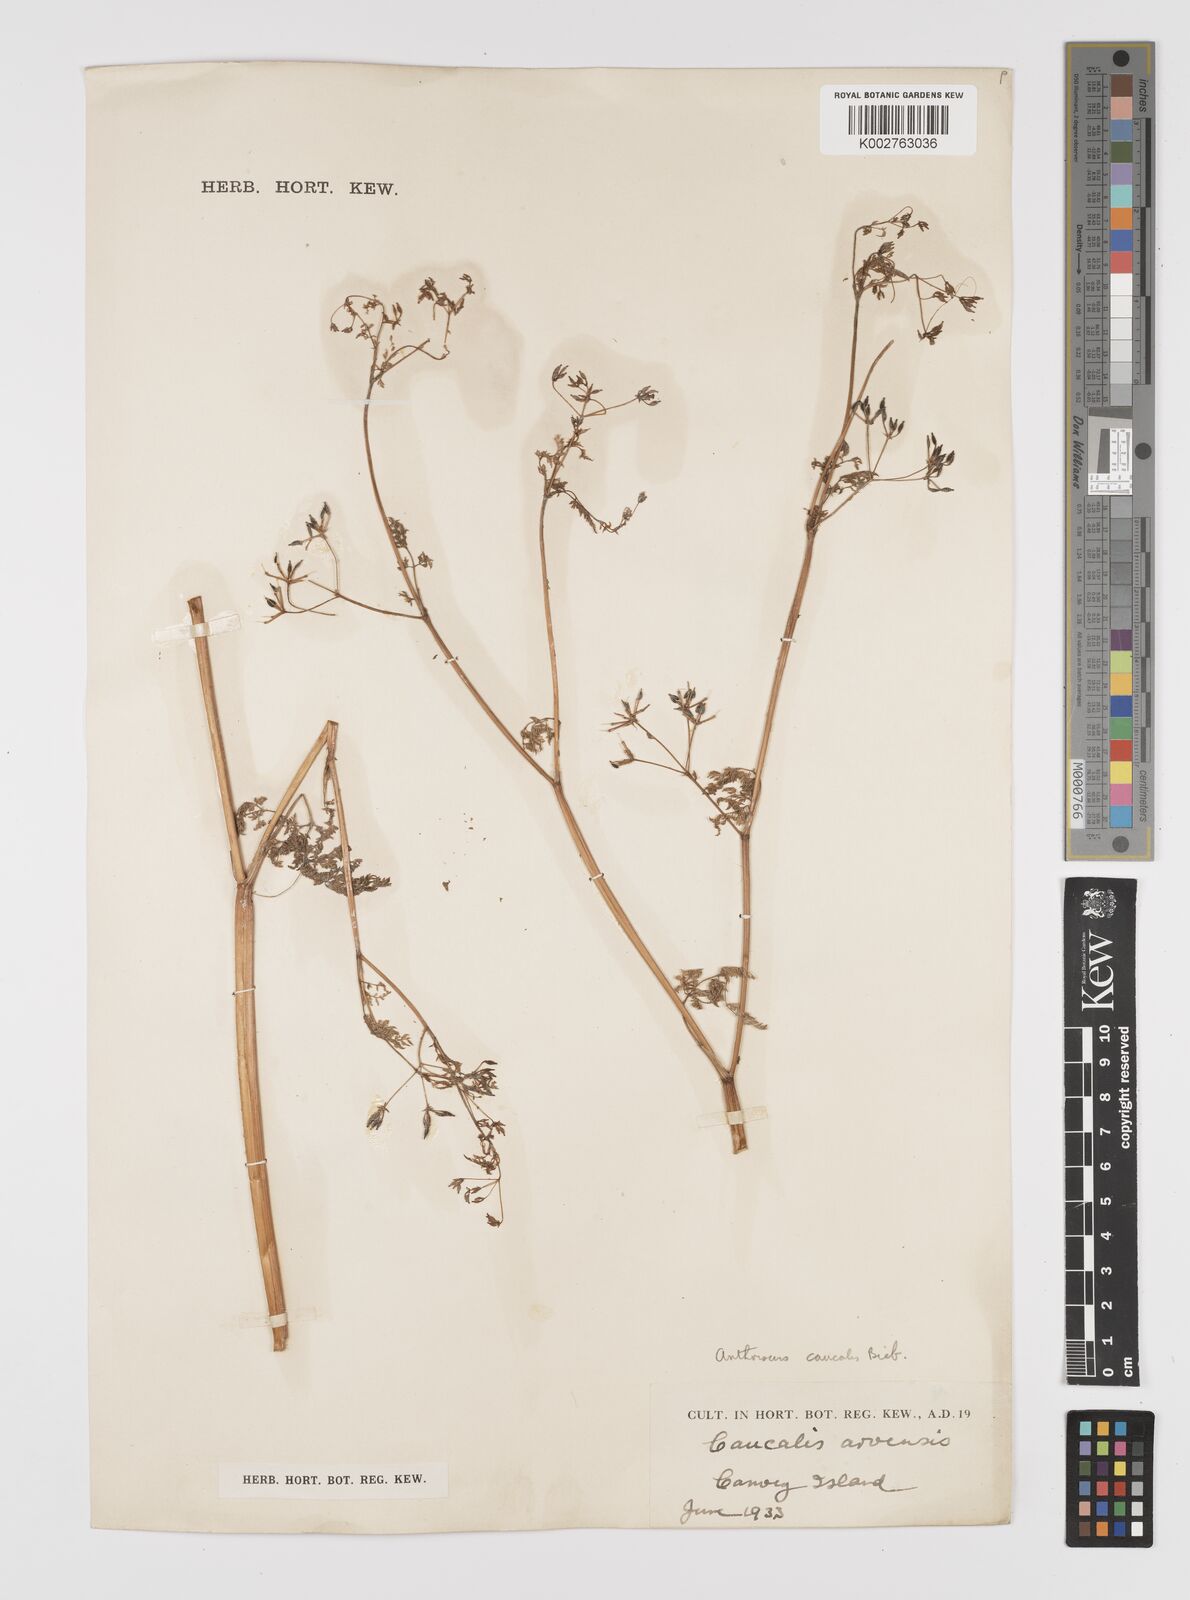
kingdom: Plantae
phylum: Tracheophyta
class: Magnoliopsida
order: Apiales
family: Apiaceae
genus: Anthriscus
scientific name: Anthriscus caucalis
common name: Bur chervil
